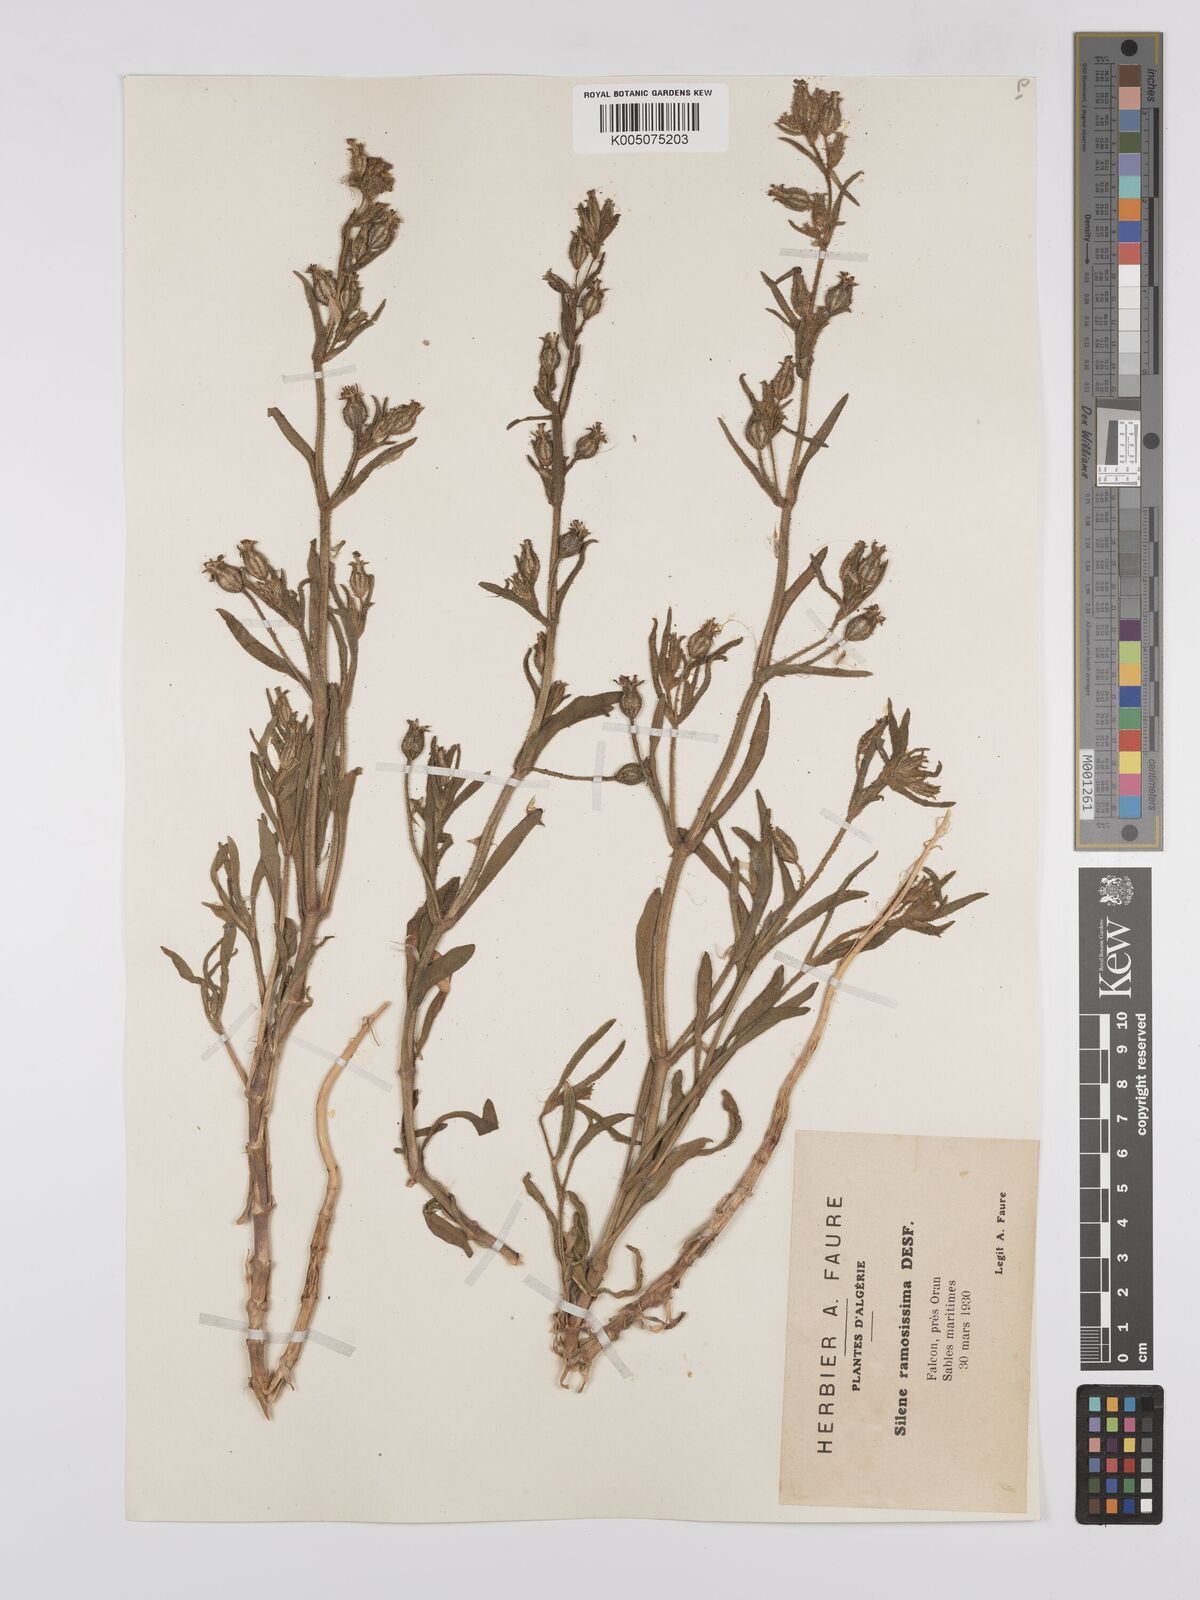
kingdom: Plantae
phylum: Tracheophyta
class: Magnoliopsida
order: Caryophyllales
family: Caryophyllaceae
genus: Silene
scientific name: Silene ramosissima
